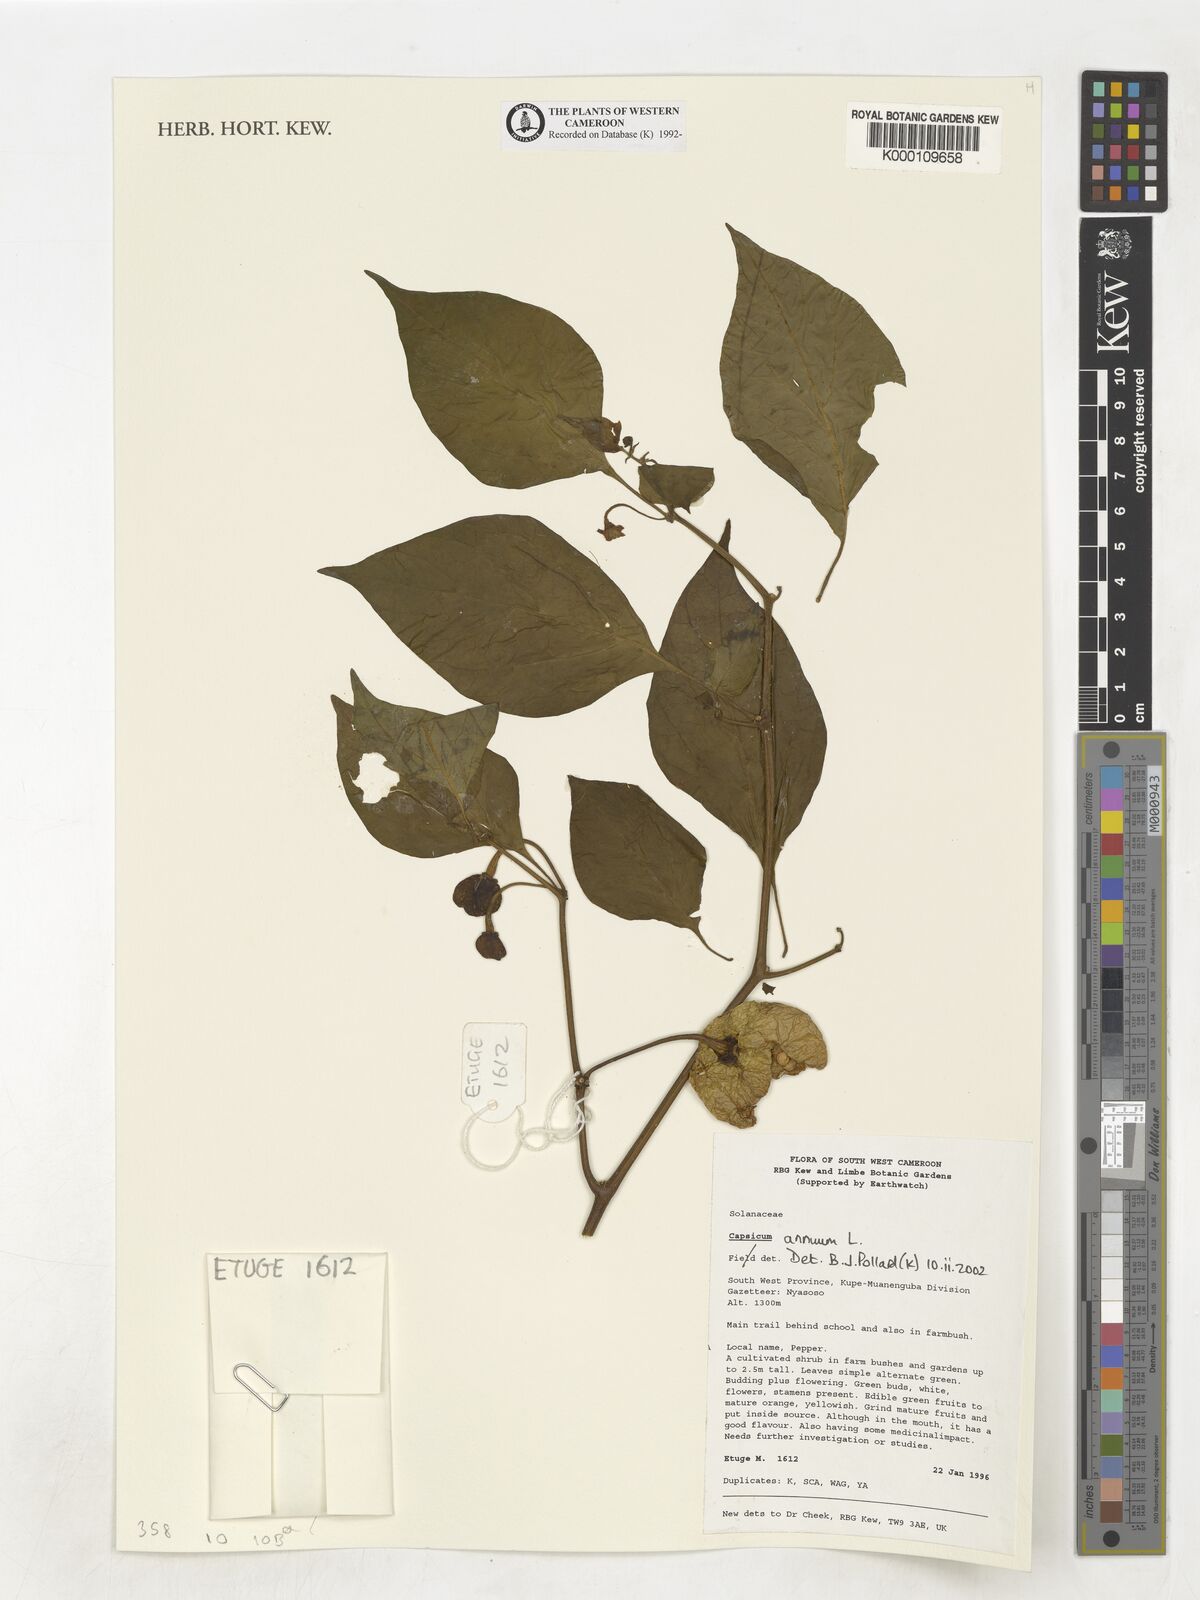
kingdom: Plantae
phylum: Tracheophyta
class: Magnoliopsida
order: Solanales
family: Solanaceae
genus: Capsicum
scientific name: Capsicum annuum
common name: Sweet pepper
